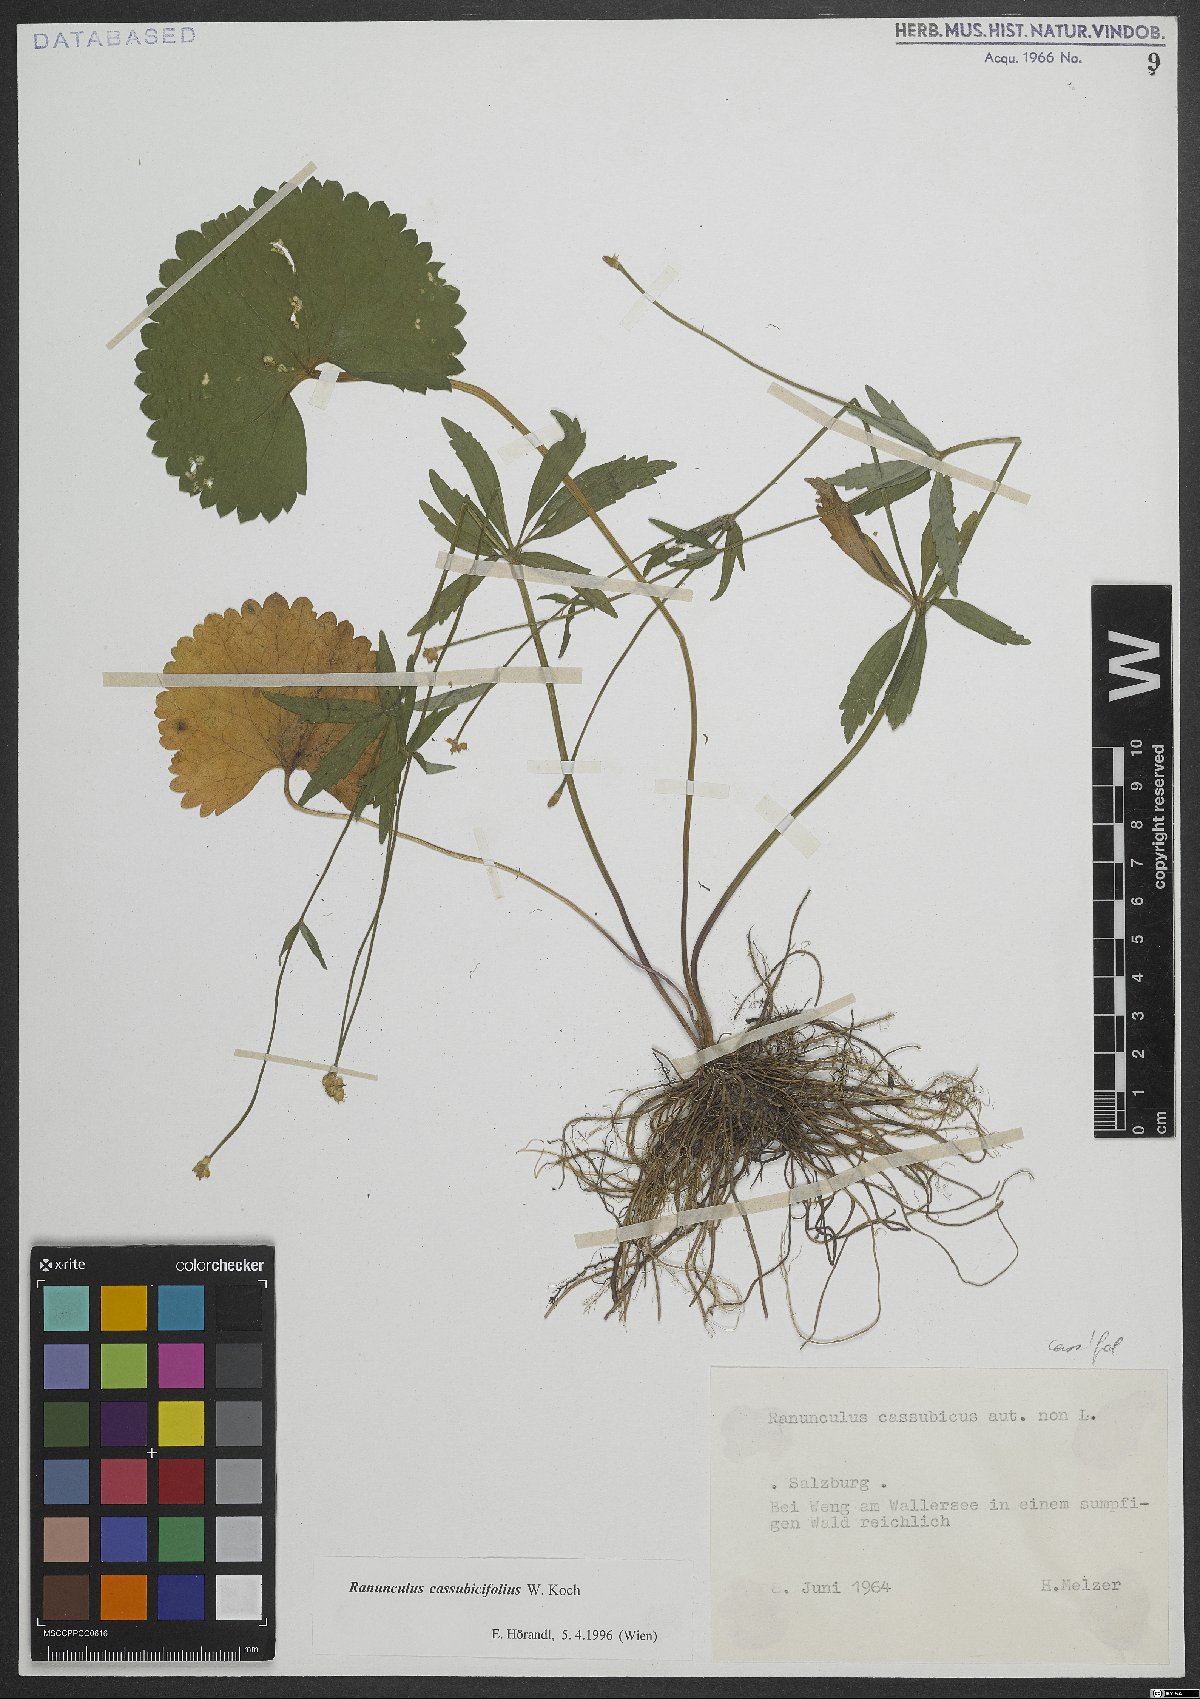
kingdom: Plantae
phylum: Tracheophyta
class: Magnoliopsida
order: Ranunculales
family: Ranunculaceae
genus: Ranunculus
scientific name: Ranunculus cassubicifolius
